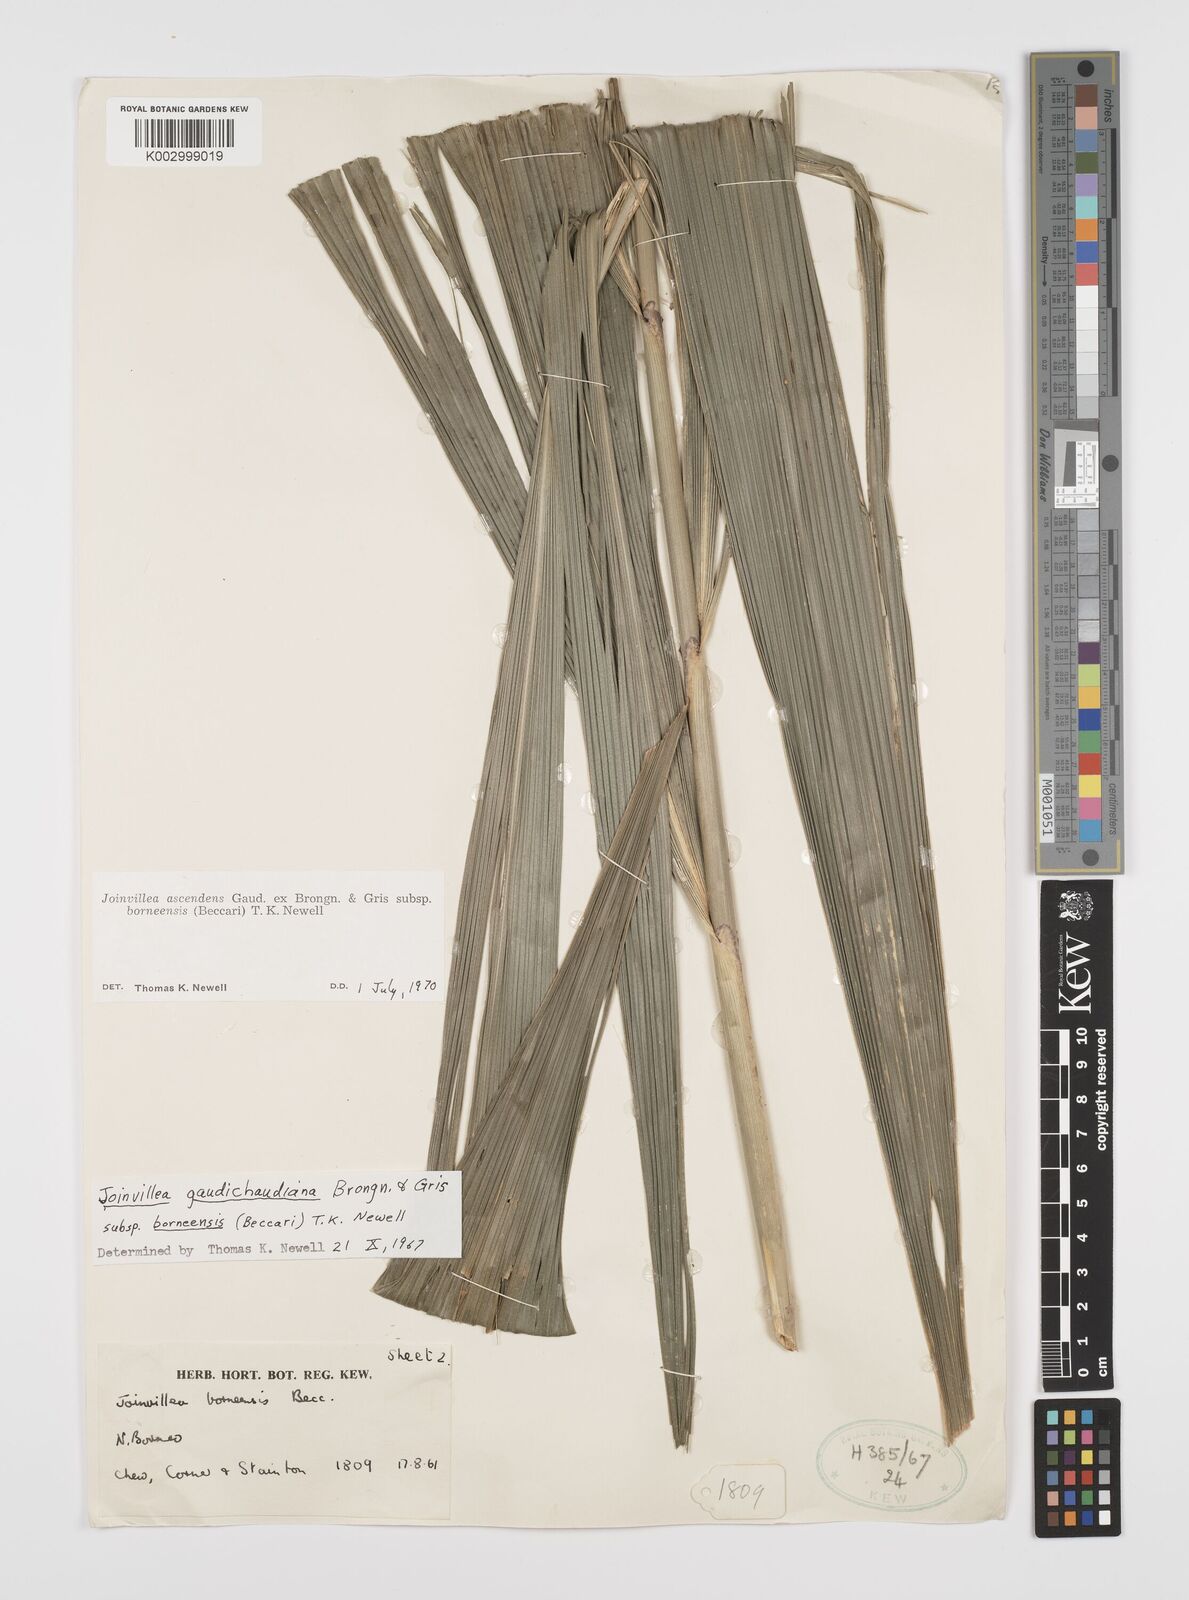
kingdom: Plantae
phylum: Tracheophyta
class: Liliopsida
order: Poales
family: Joinvilleaceae
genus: Joinvillea
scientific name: Joinvillea borneensis
